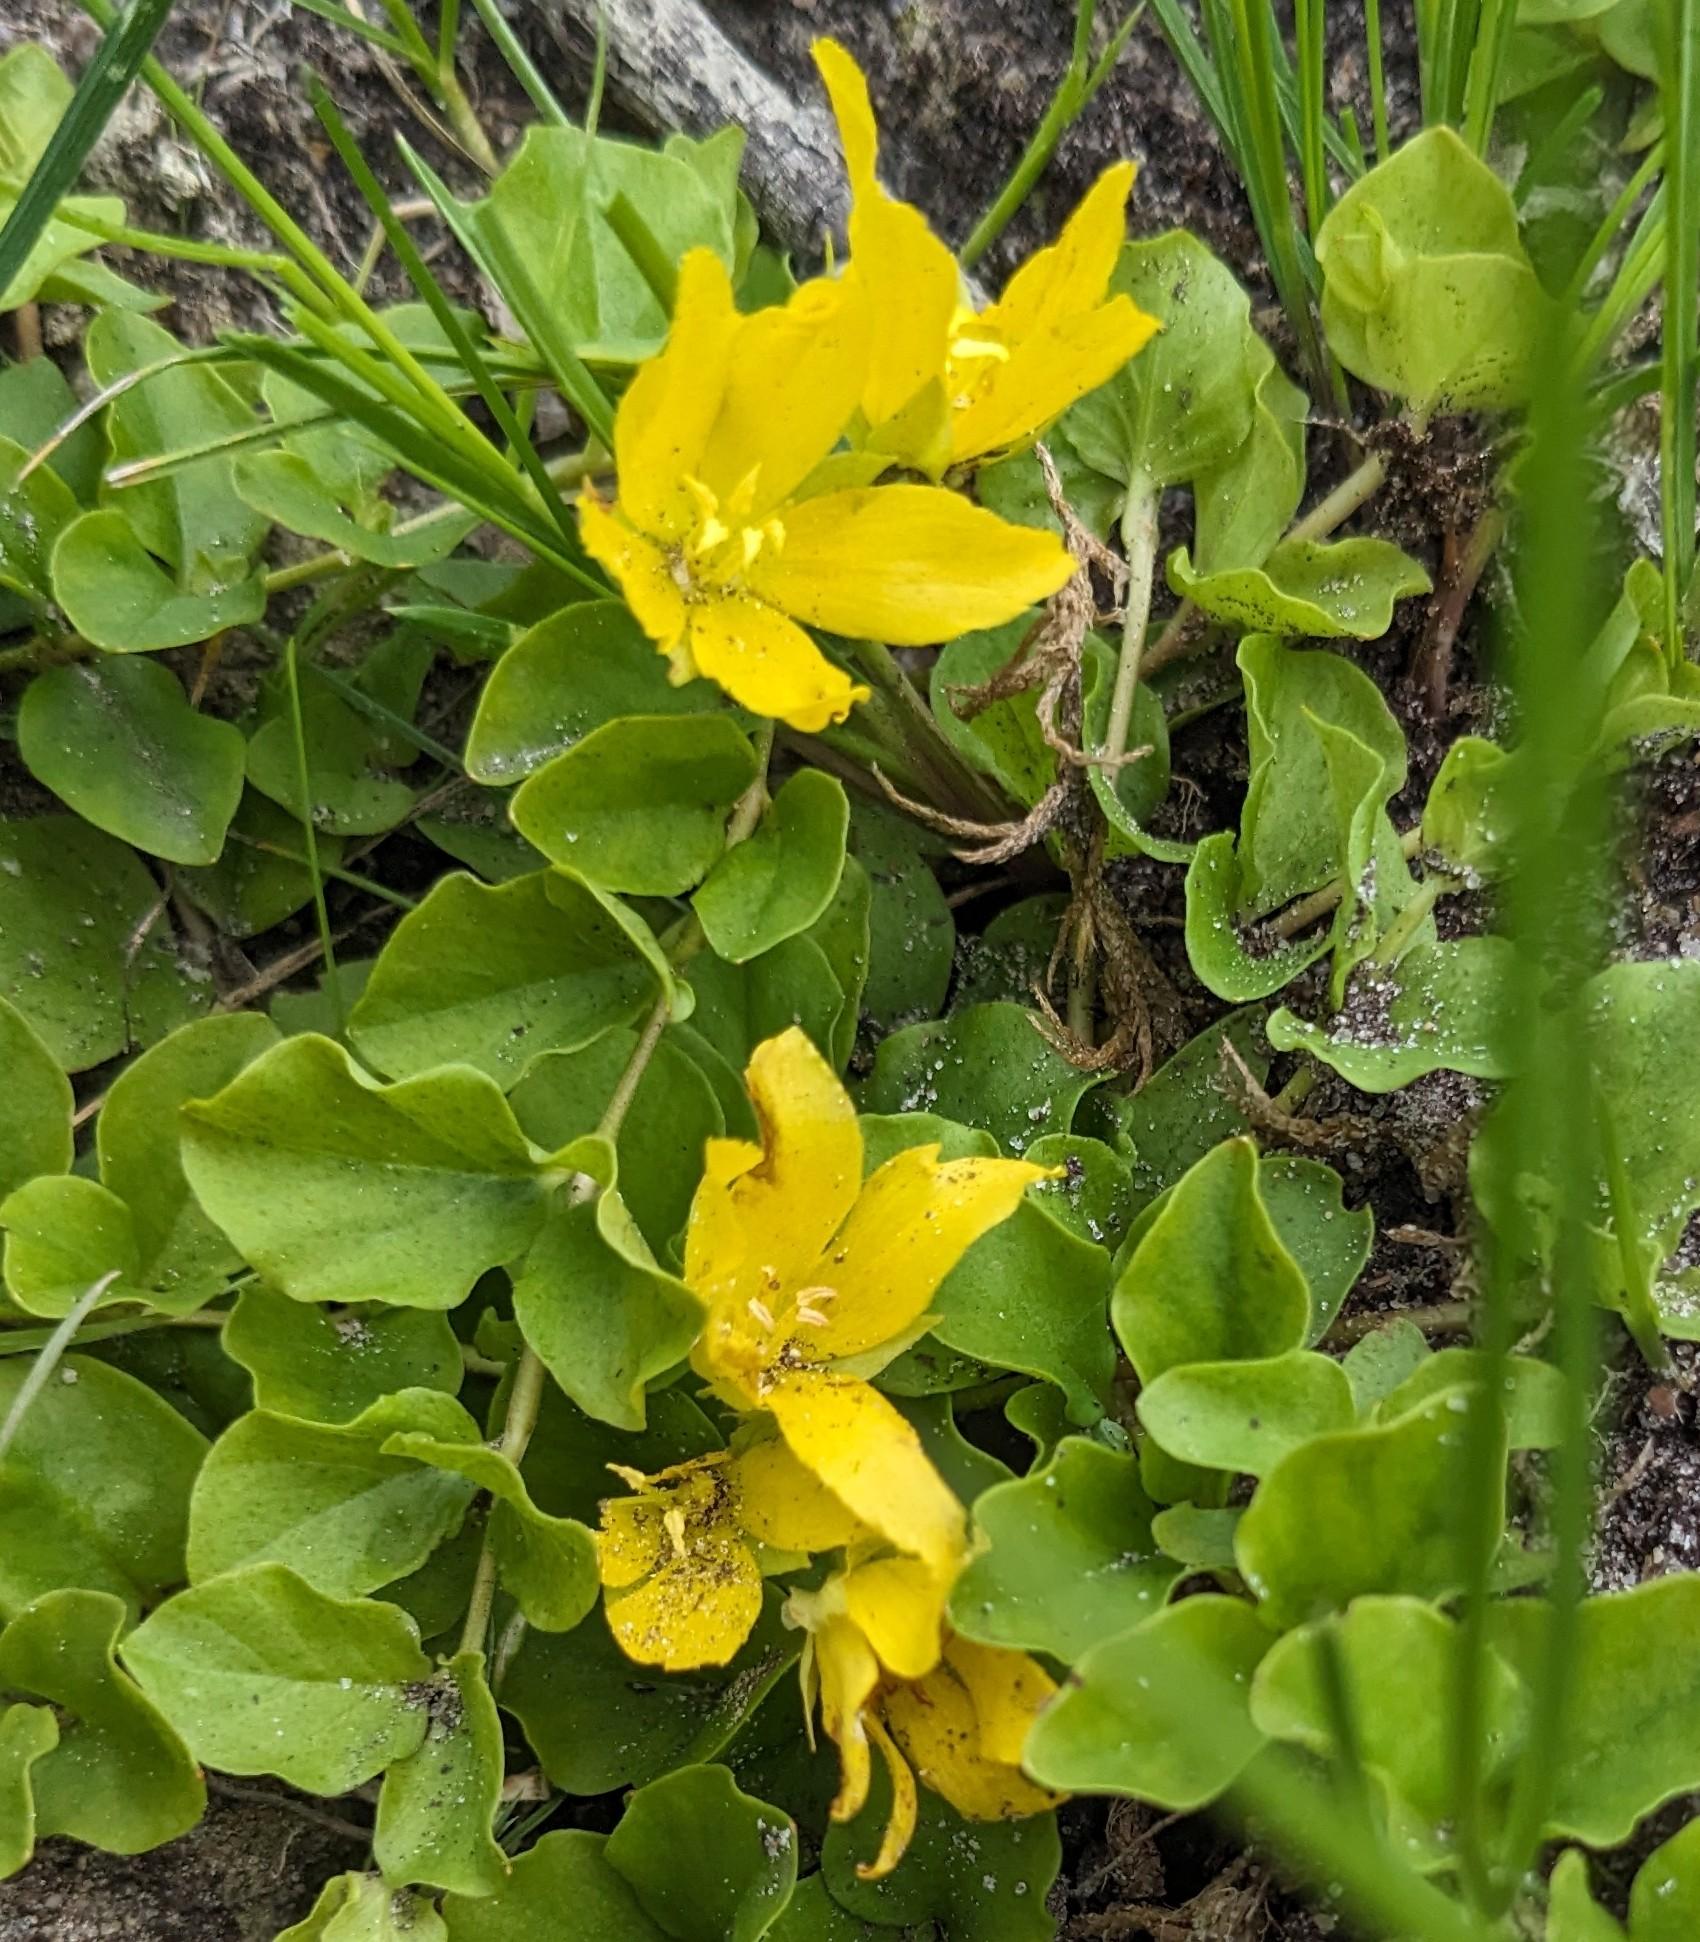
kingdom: Plantae
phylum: Tracheophyta
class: Magnoliopsida
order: Ericales
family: Primulaceae
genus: Lysimachia
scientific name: Lysimachia nummularia
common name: Pengebladet fredløs
